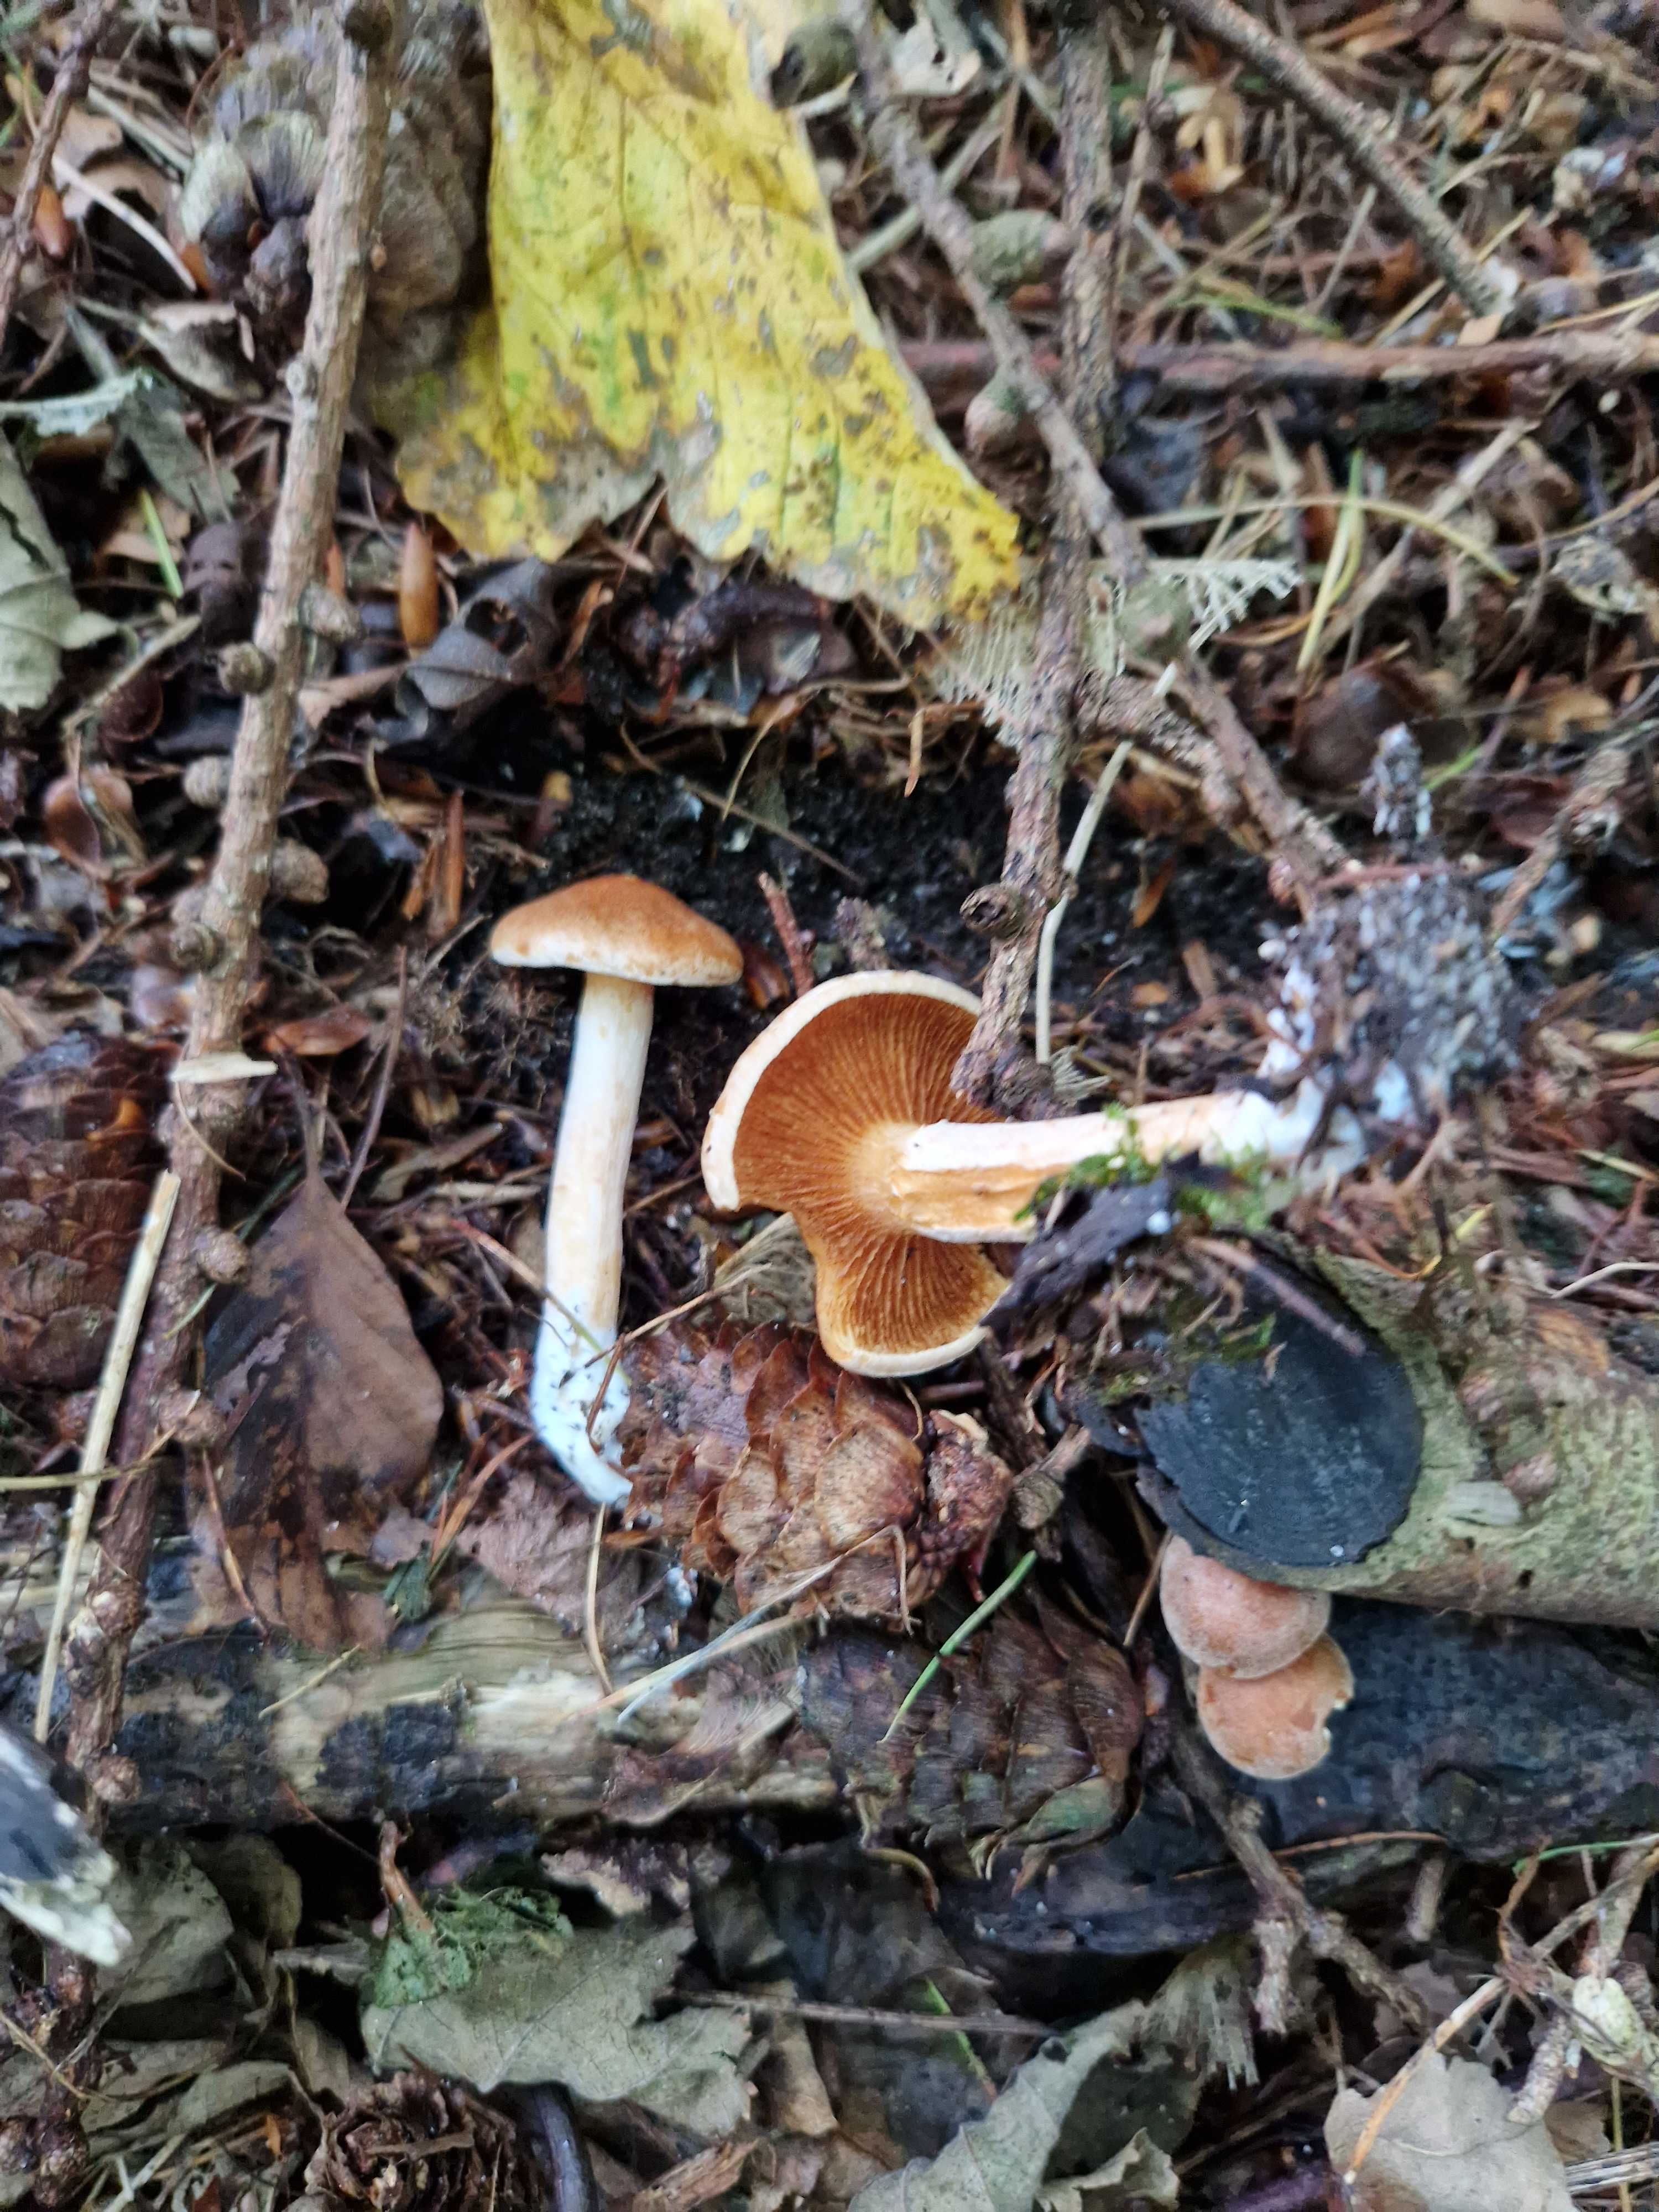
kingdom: Fungi
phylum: Basidiomycota
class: Agaricomycetes
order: Agaricales
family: Hymenogastraceae
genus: Gymnopilus
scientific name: Gymnopilus penetrans
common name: plettet flammehat
